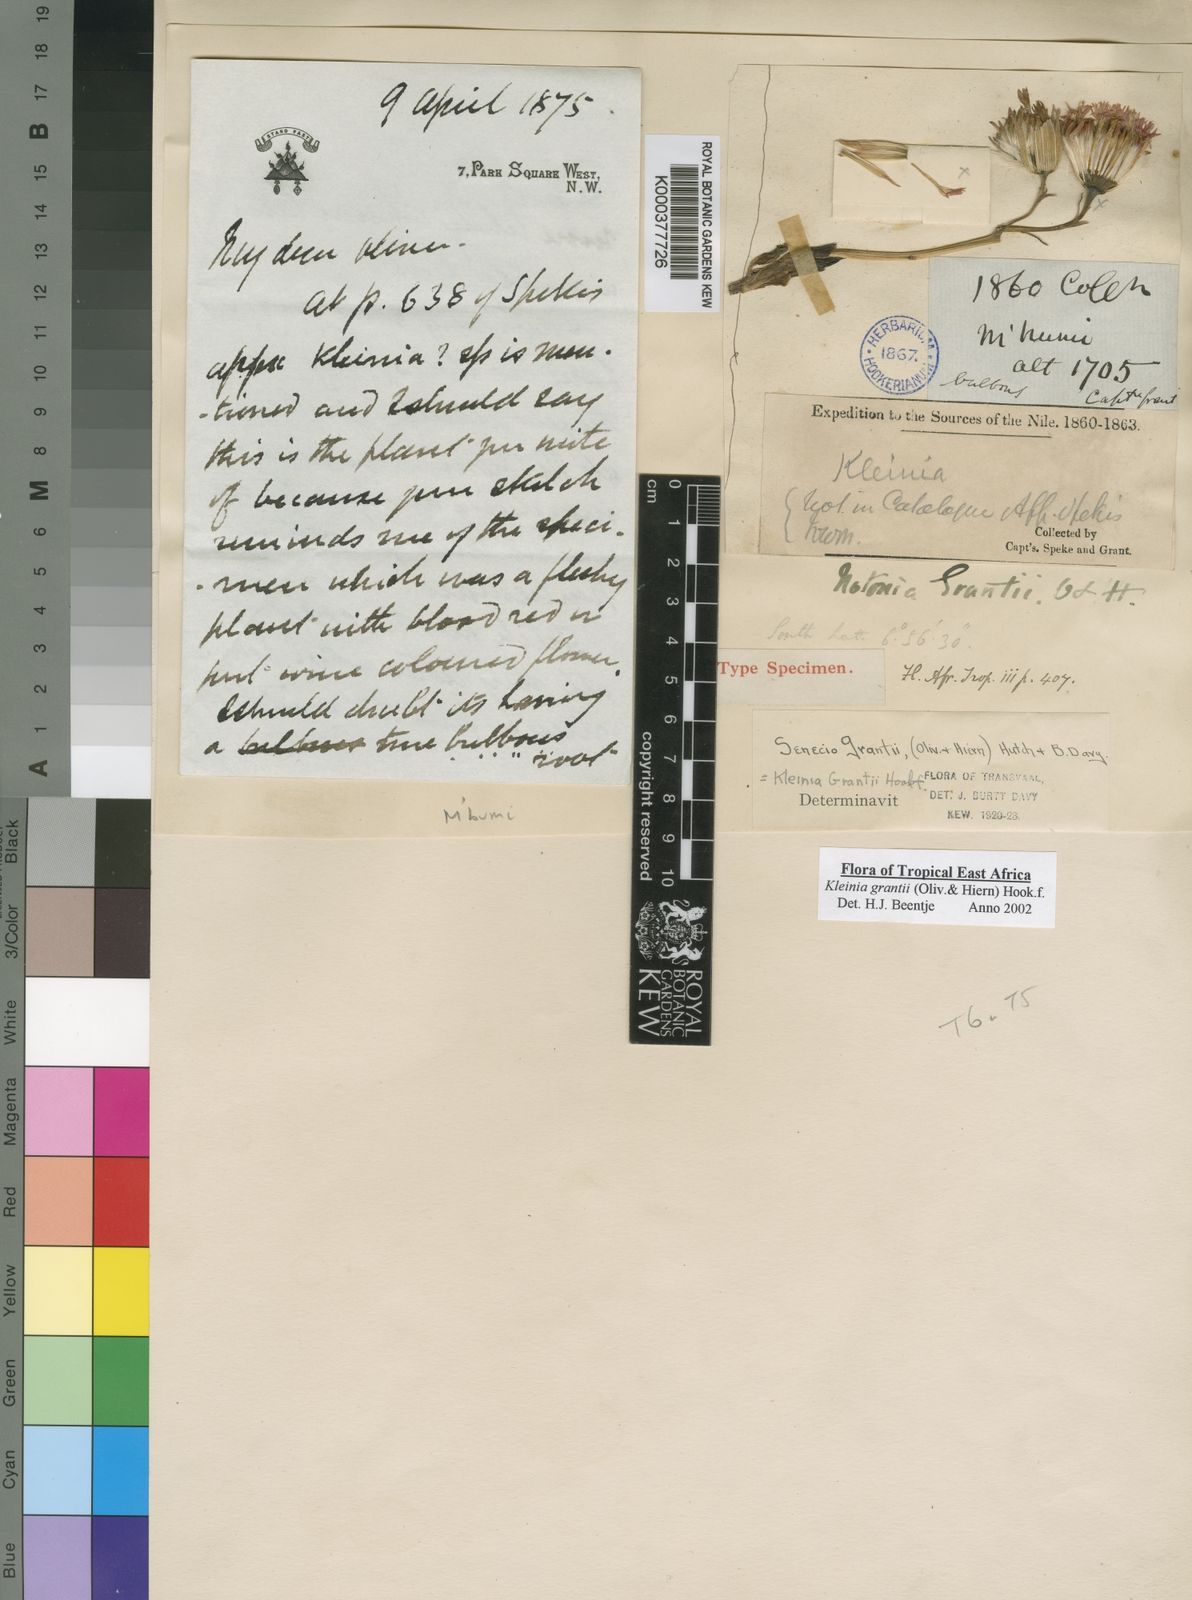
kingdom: Plantae
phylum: Tracheophyta
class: Magnoliopsida
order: Asterales
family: Asteraceae
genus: Kleinia
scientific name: Kleinia grantii
